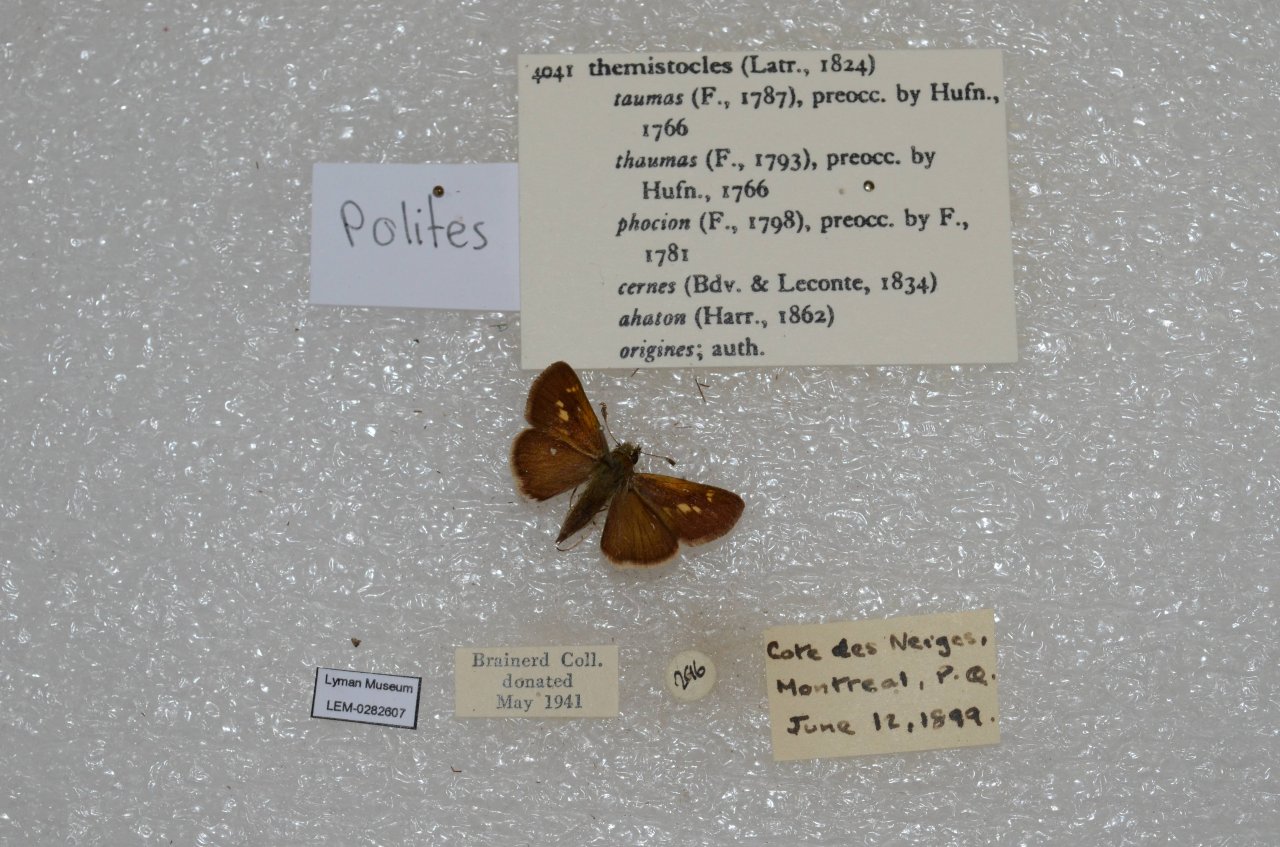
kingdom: Animalia
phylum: Arthropoda
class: Insecta
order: Lepidoptera
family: Hesperiidae
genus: Polites
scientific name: Polites themistocles
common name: Tawny-edged Skipper
